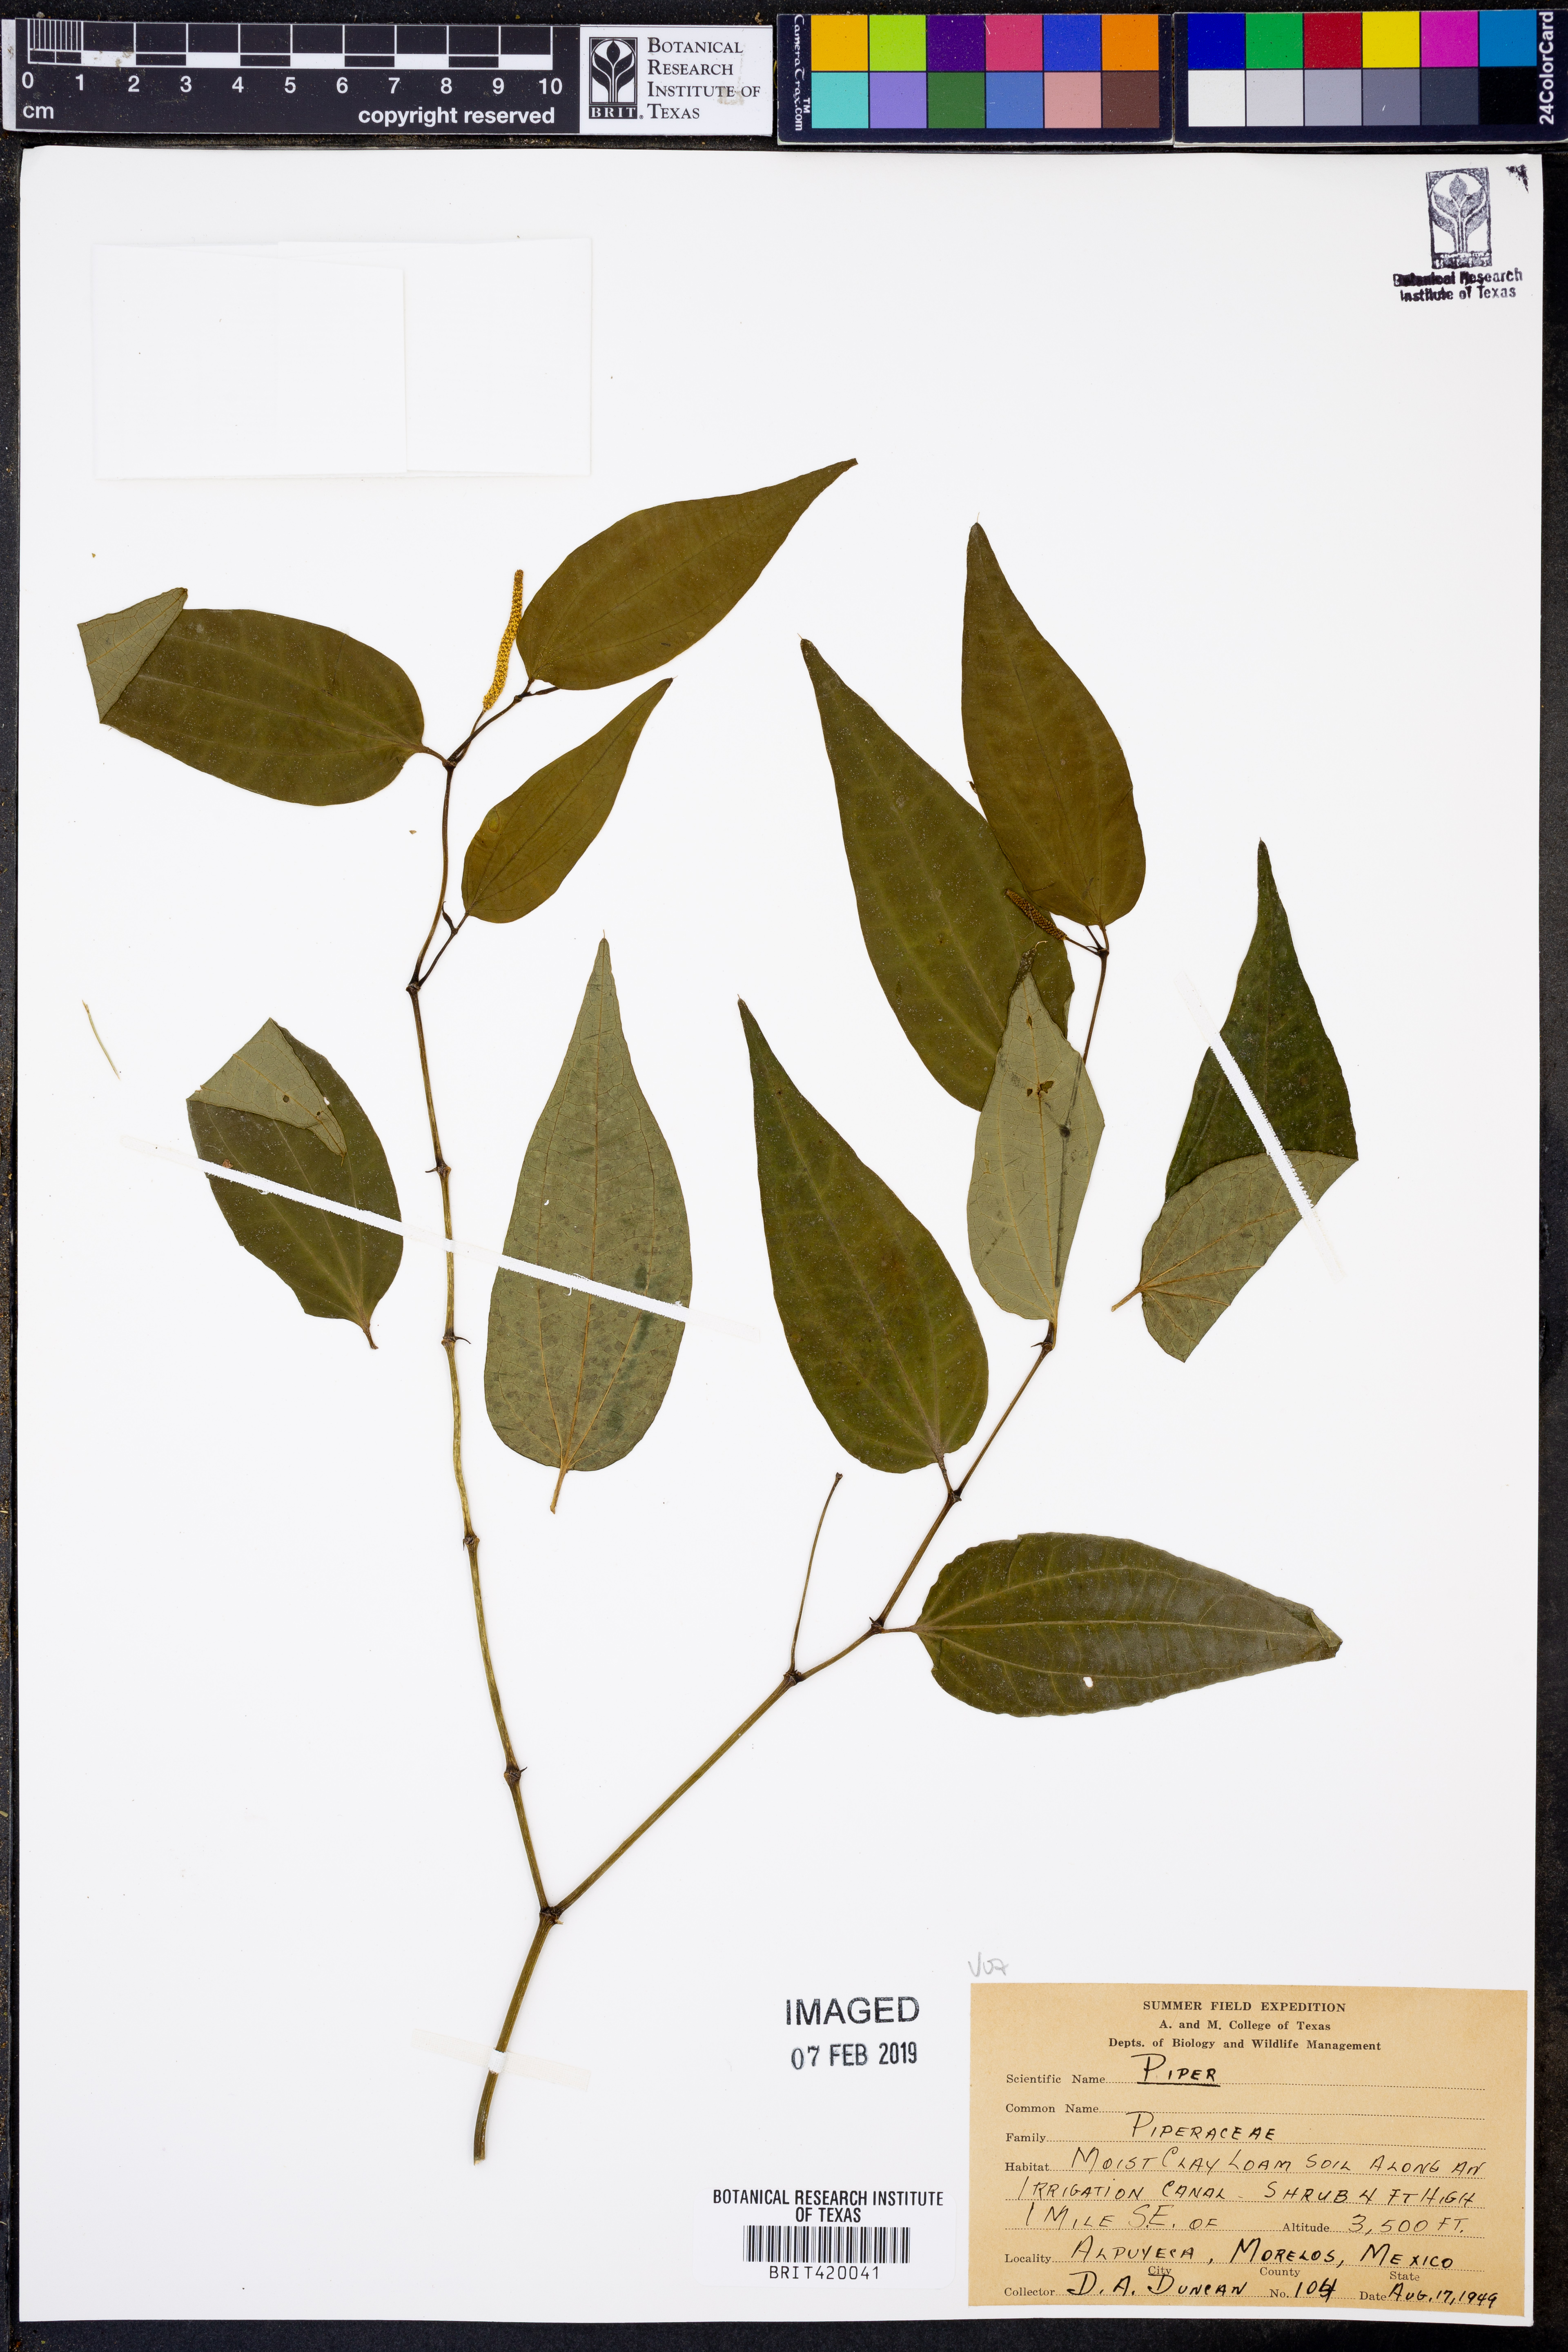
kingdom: Plantae
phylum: Tracheophyta
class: Magnoliopsida
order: Piperales
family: Piperaceae
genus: Piper
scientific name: Piper
